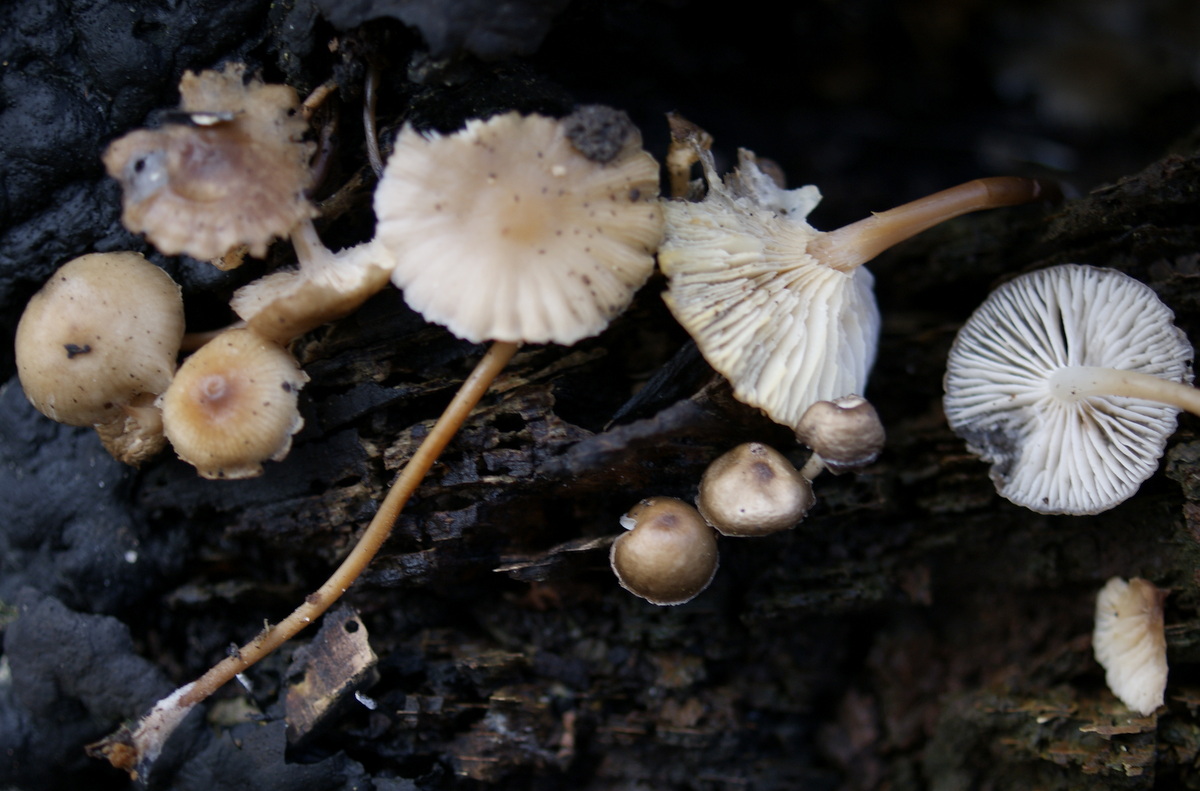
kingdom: Fungi
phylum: Basidiomycota
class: Agaricomycetes
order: Agaricales
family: Mycenaceae
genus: Mycena
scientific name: Mycena tintinnabulum
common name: vinter-huesvamp
